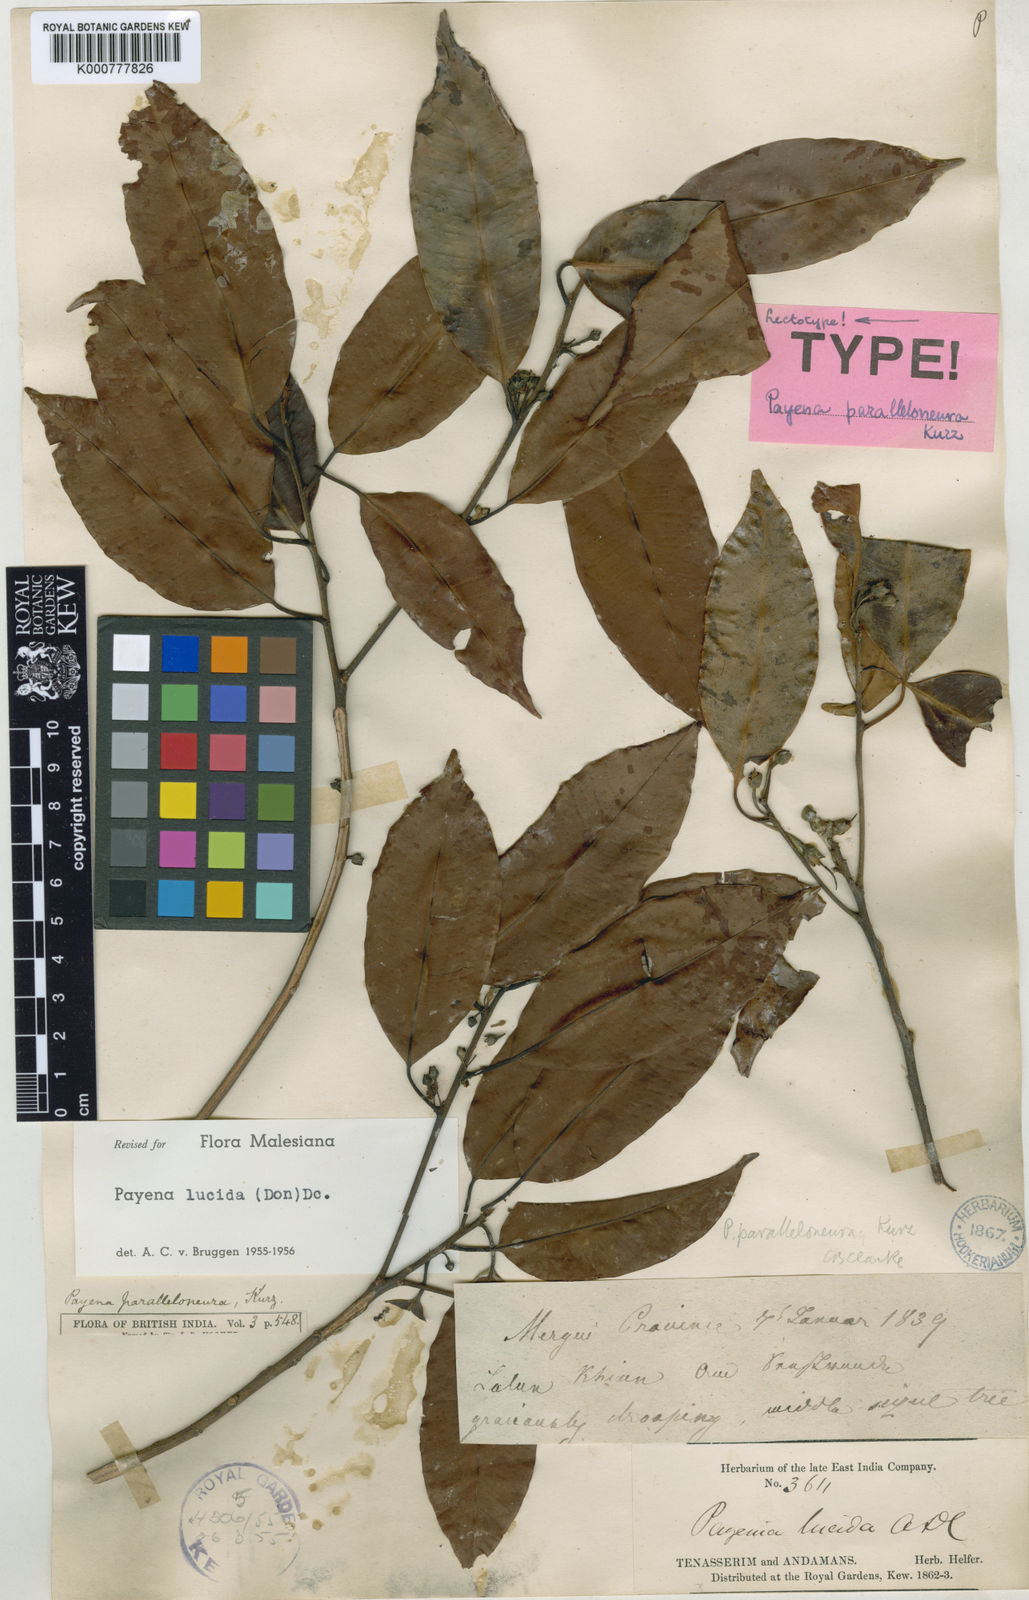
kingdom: Plantae
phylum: Tracheophyta
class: Magnoliopsida
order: Ericales
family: Sapotaceae
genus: Payena
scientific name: Payena lucida
